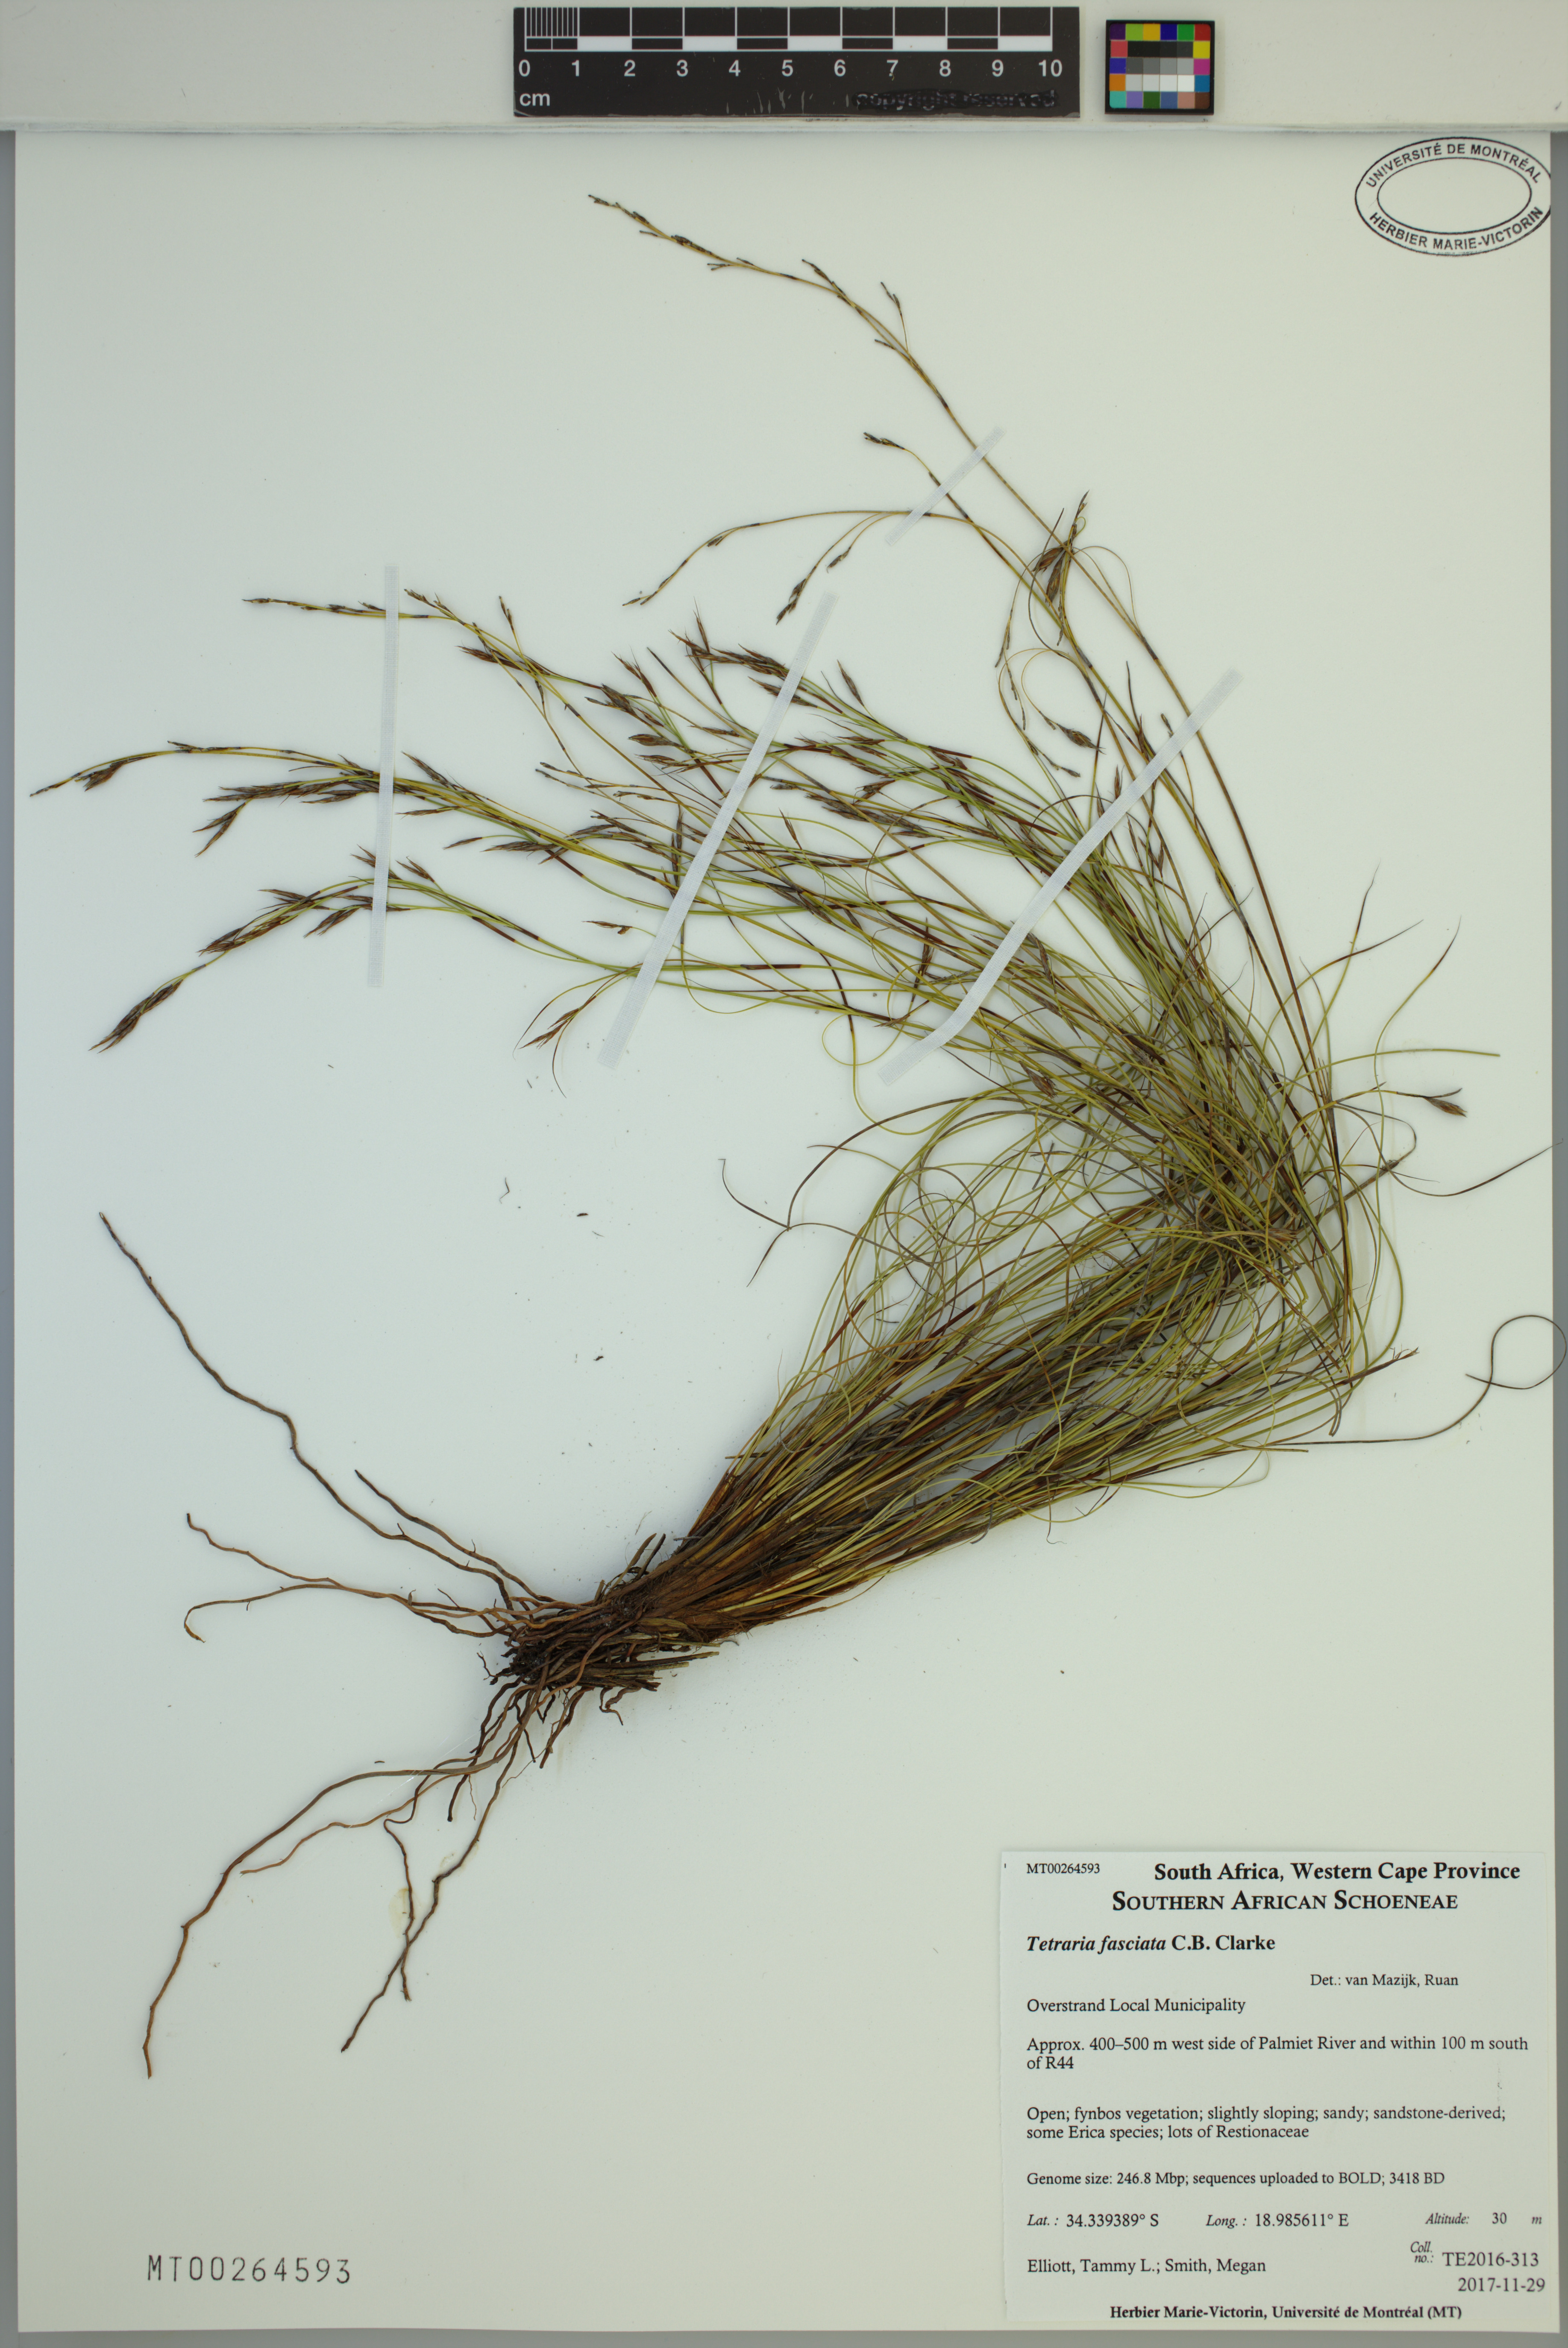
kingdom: Plantae
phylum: Tracheophyta
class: Liliopsida
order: Poales
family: Cyperaceae
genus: Tetraria
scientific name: Tetraria fasciata
